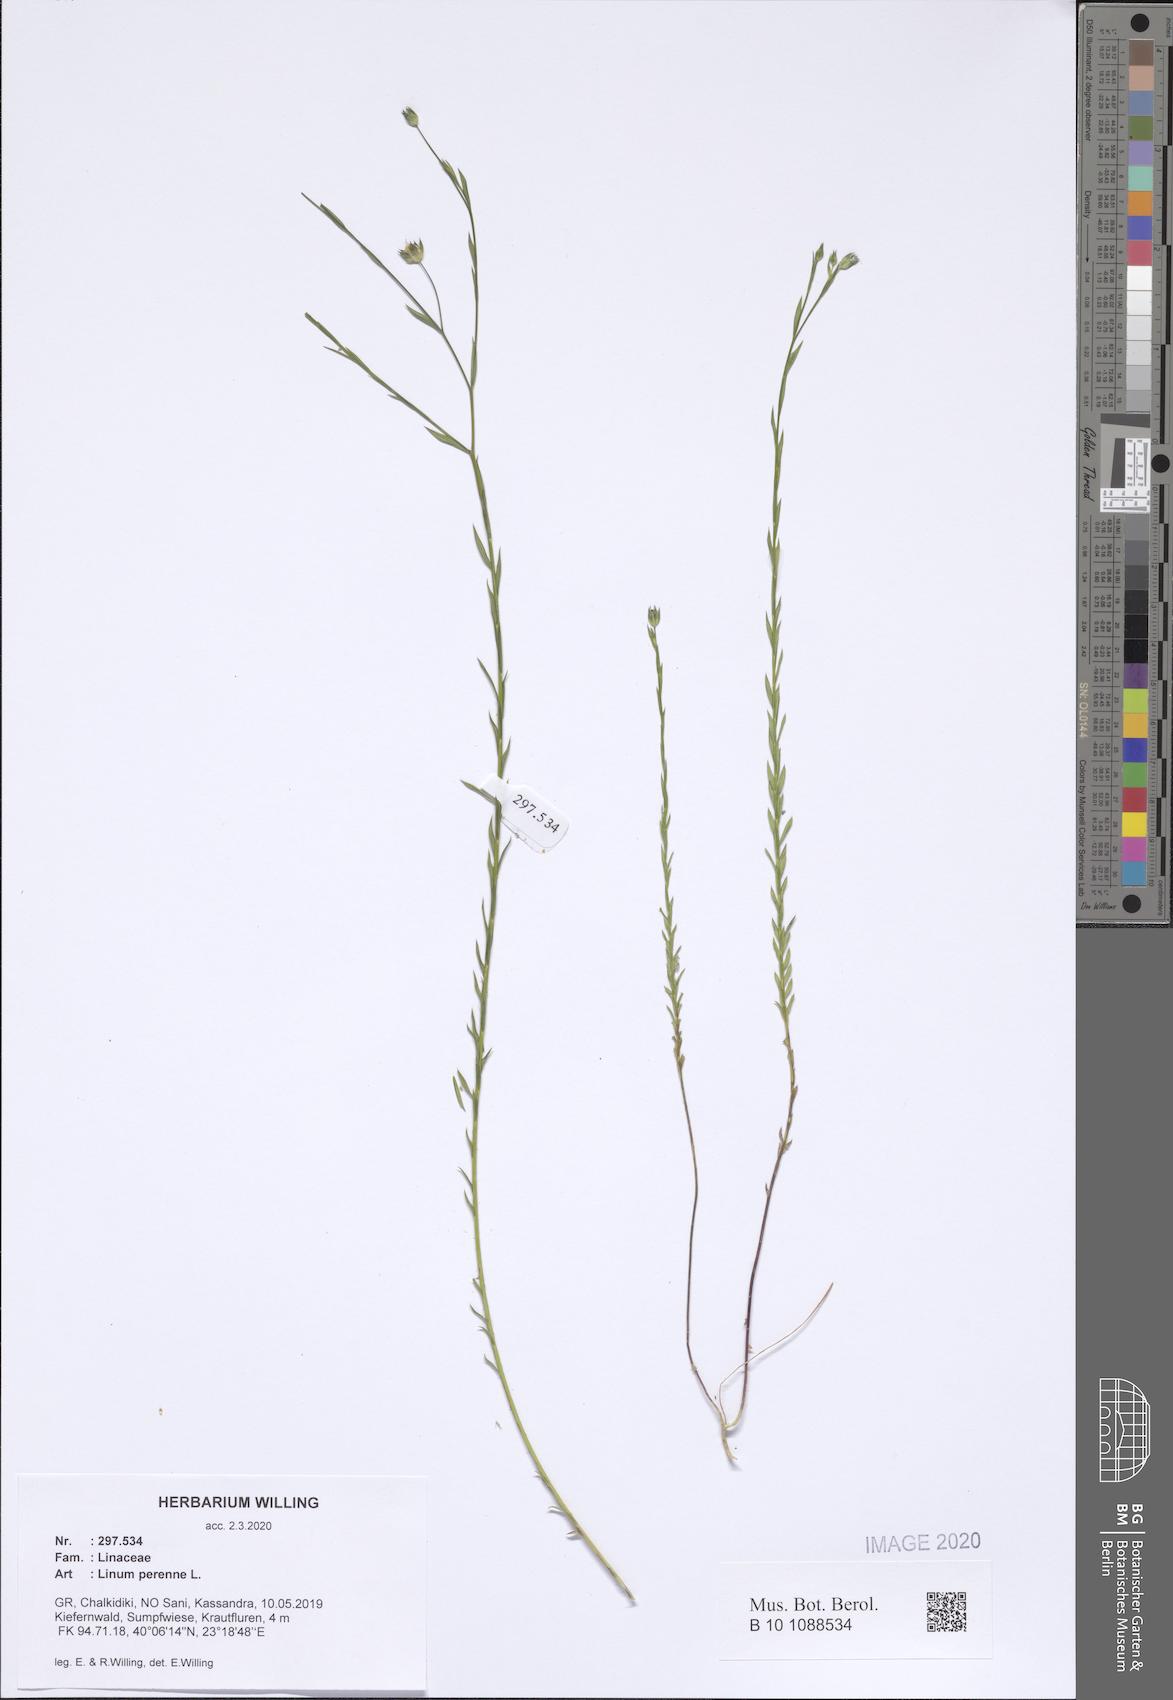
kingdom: Plantae
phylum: Tracheophyta
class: Magnoliopsida
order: Malpighiales
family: Linaceae
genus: Linum
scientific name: Linum perenne
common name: Blue flax
